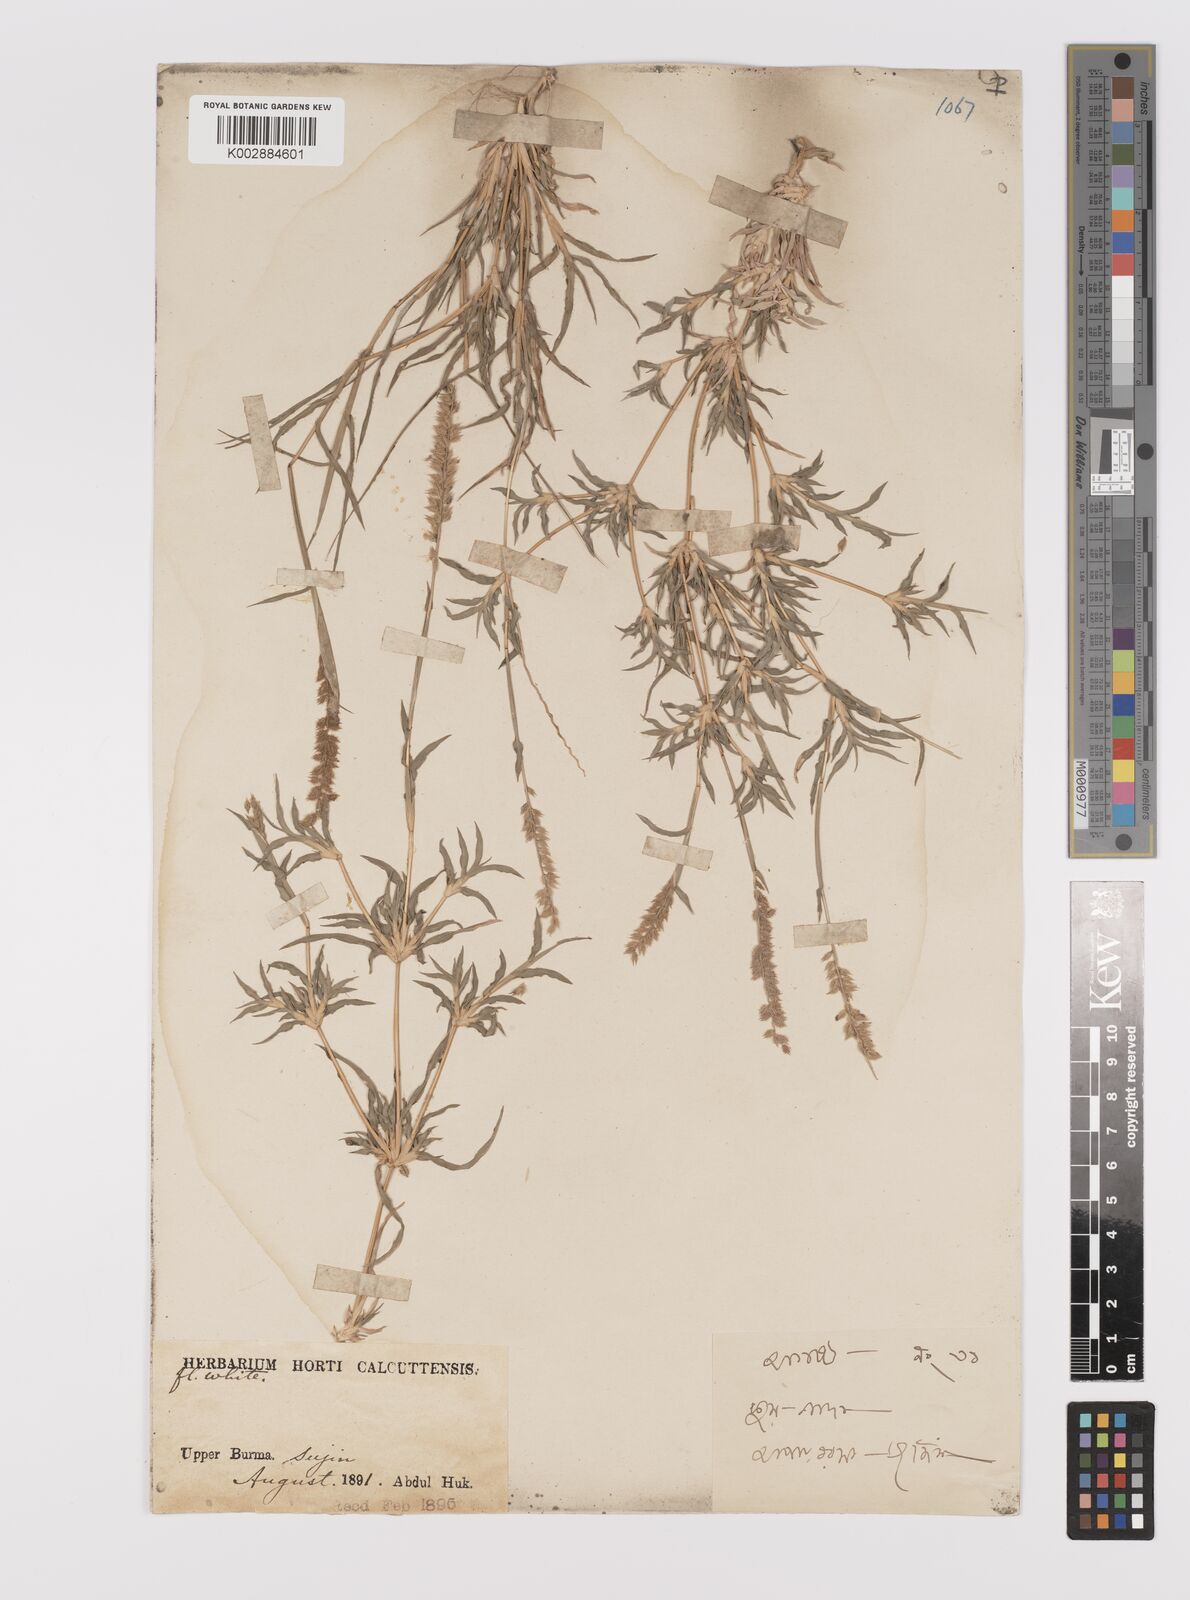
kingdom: Plantae
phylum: Tracheophyta
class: Liliopsida
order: Poales
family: Poaceae
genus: Tragus
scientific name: Tragus mongolorum
